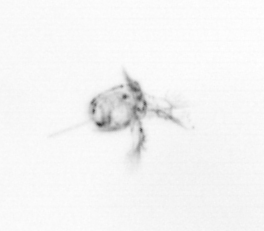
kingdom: Animalia
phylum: Arthropoda
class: Copepoda
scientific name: Copepoda
